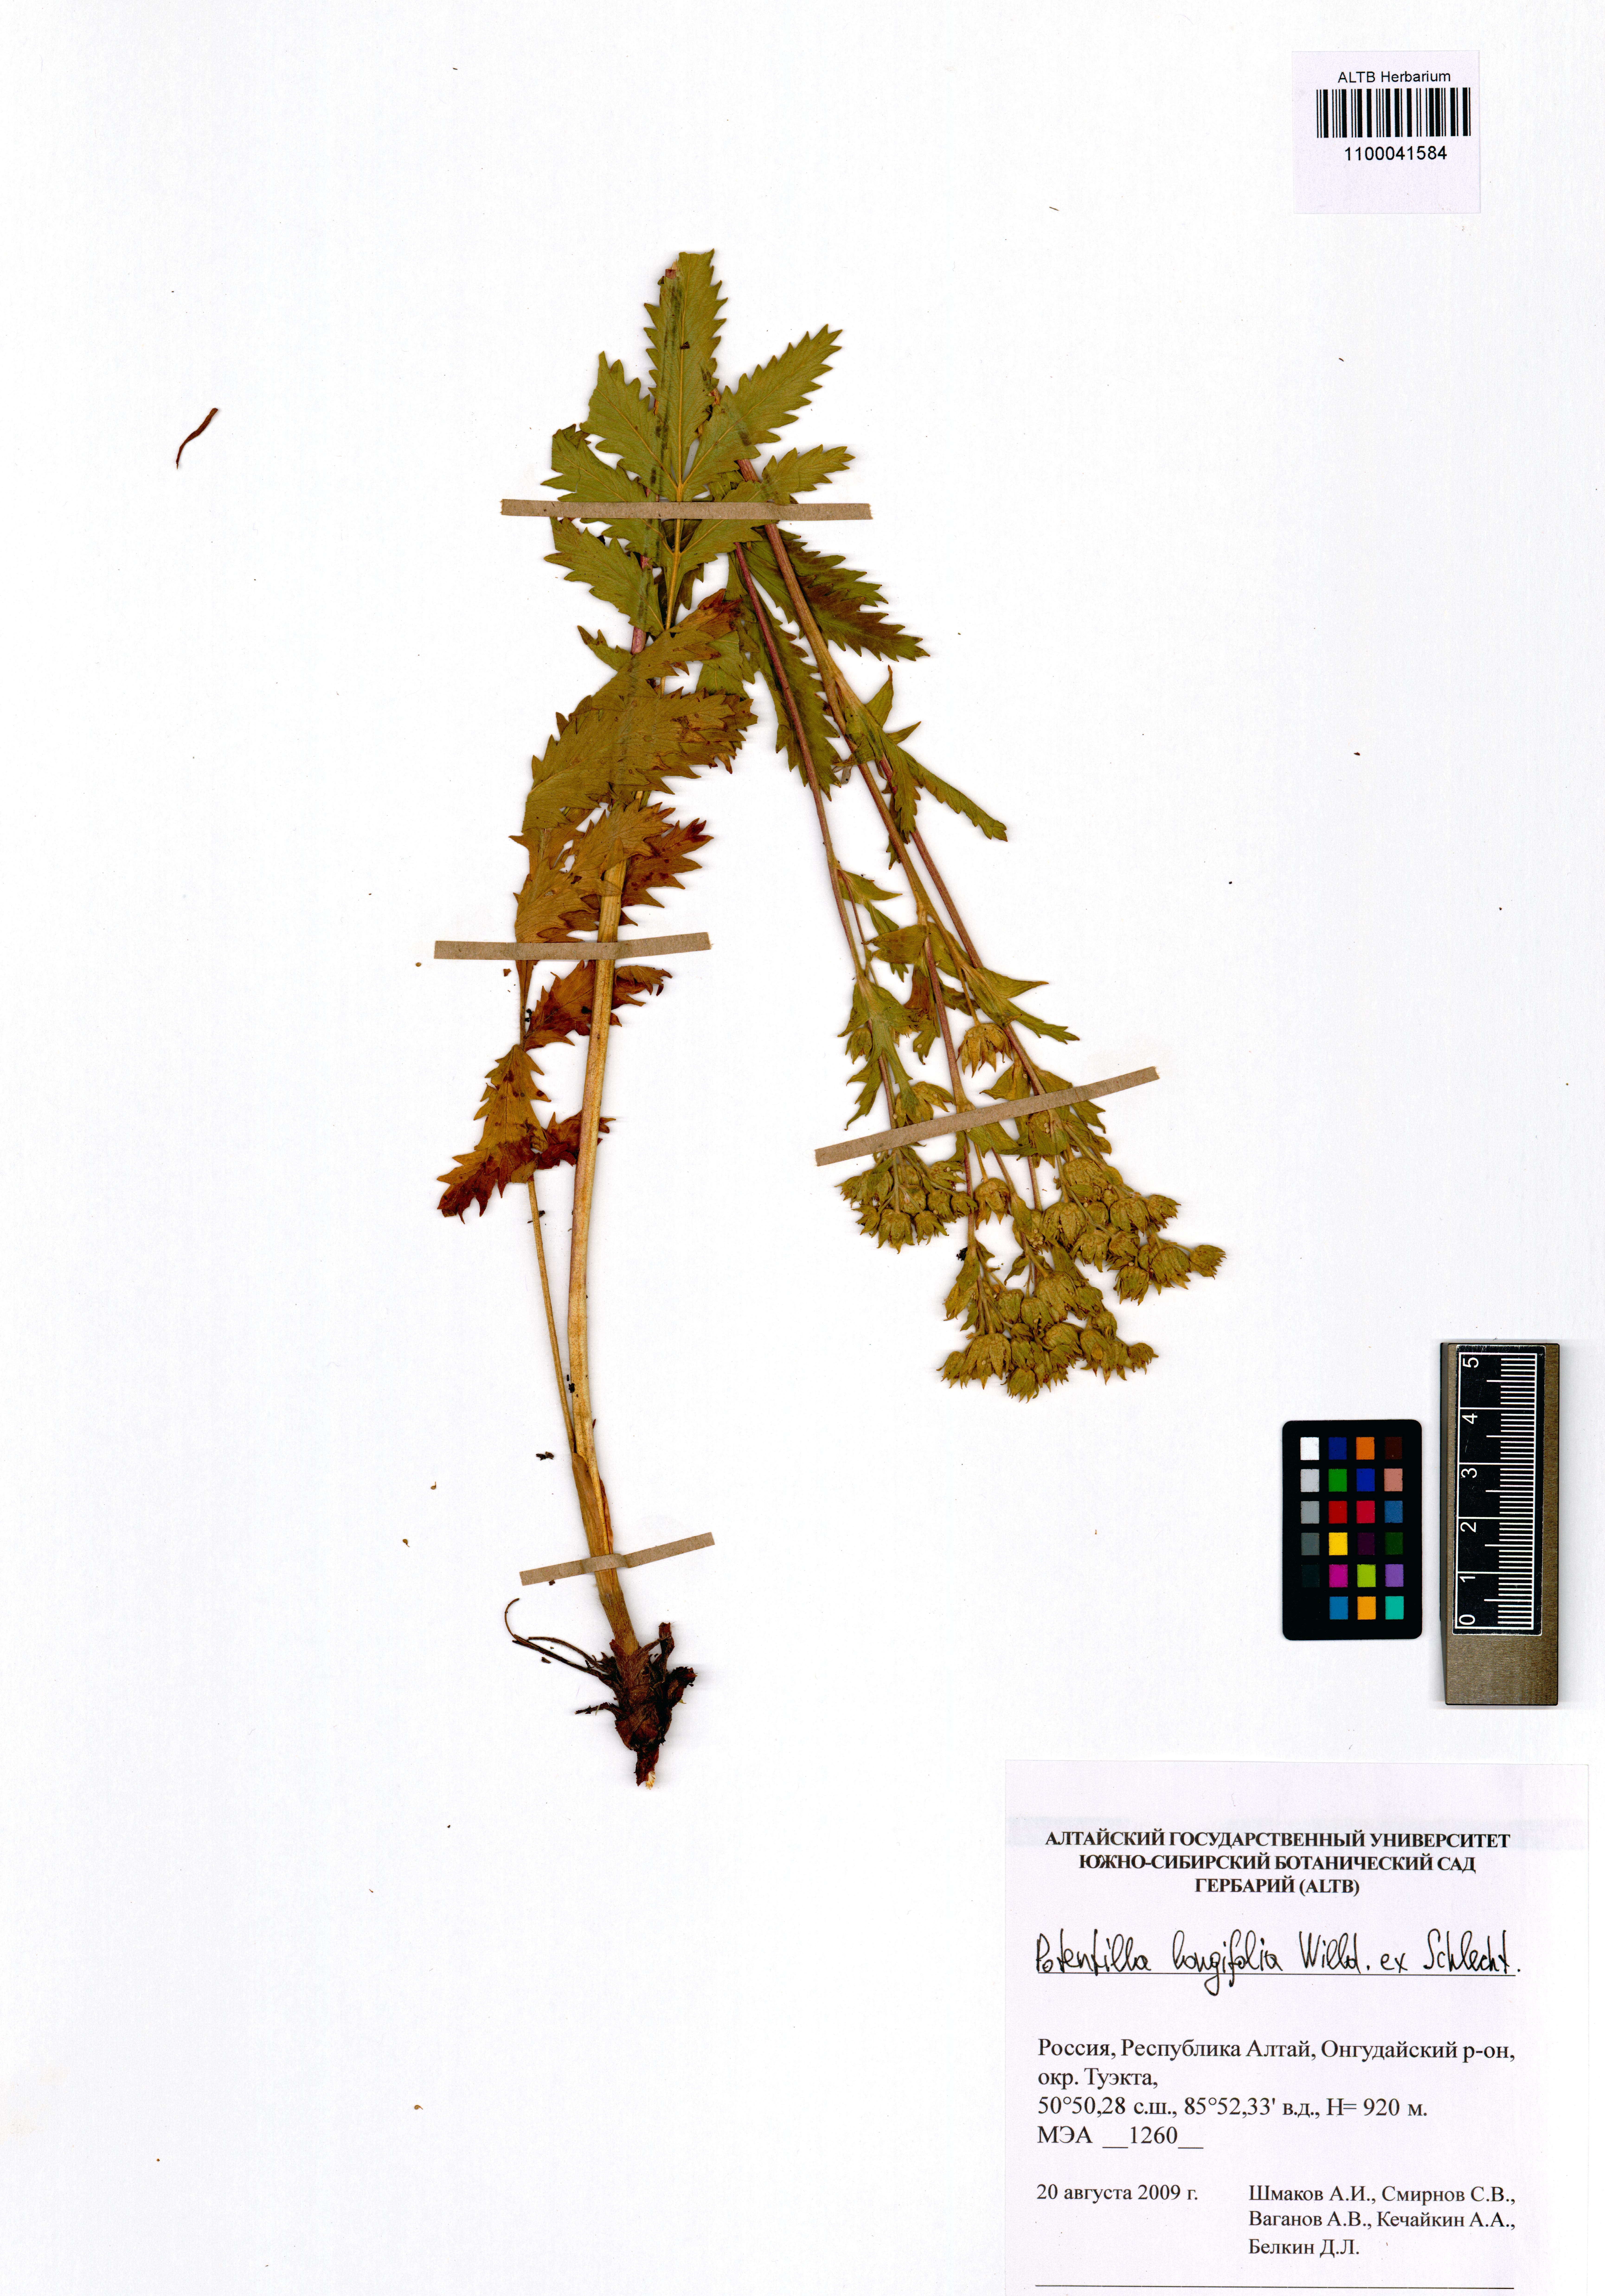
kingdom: Plantae
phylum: Tracheophyta
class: Magnoliopsida
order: Rosales
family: Rosaceae
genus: Potentilla
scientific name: Potentilla longifolia
